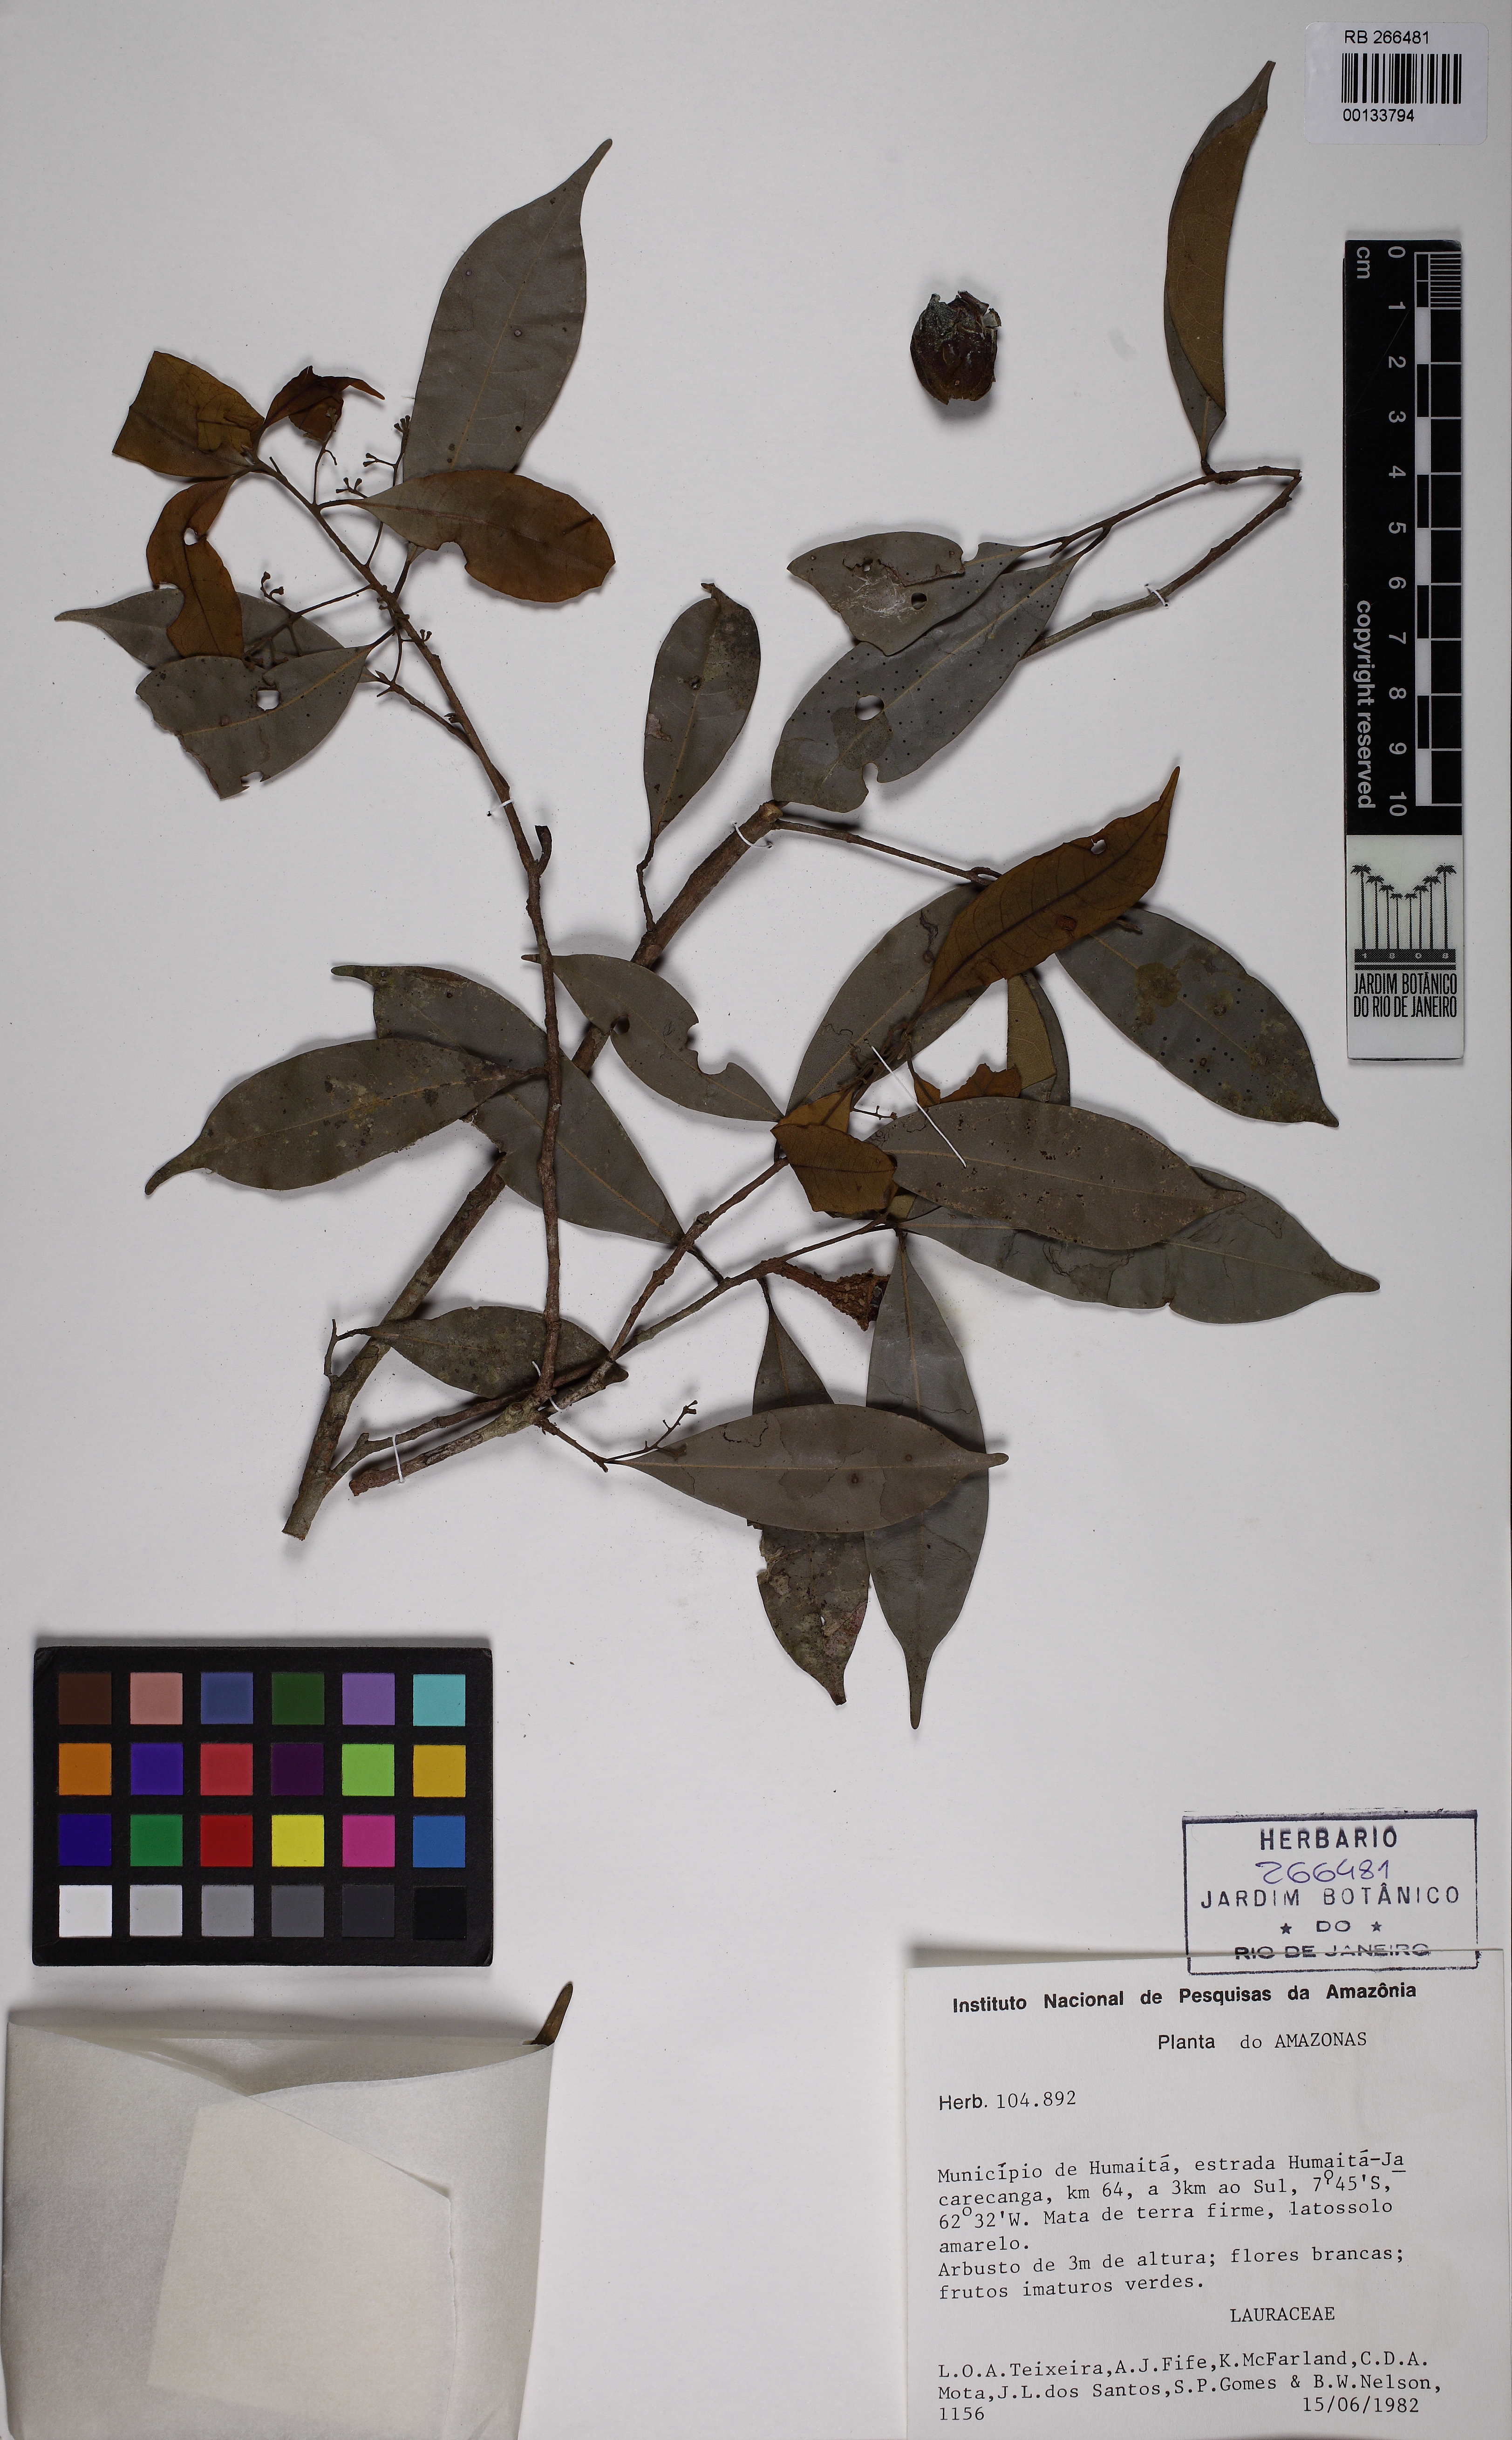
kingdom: Plantae
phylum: Tracheophyta
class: Magnoliopsida
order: Laurales
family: Lauraceae
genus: Aniba
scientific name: Aniba panurensis
